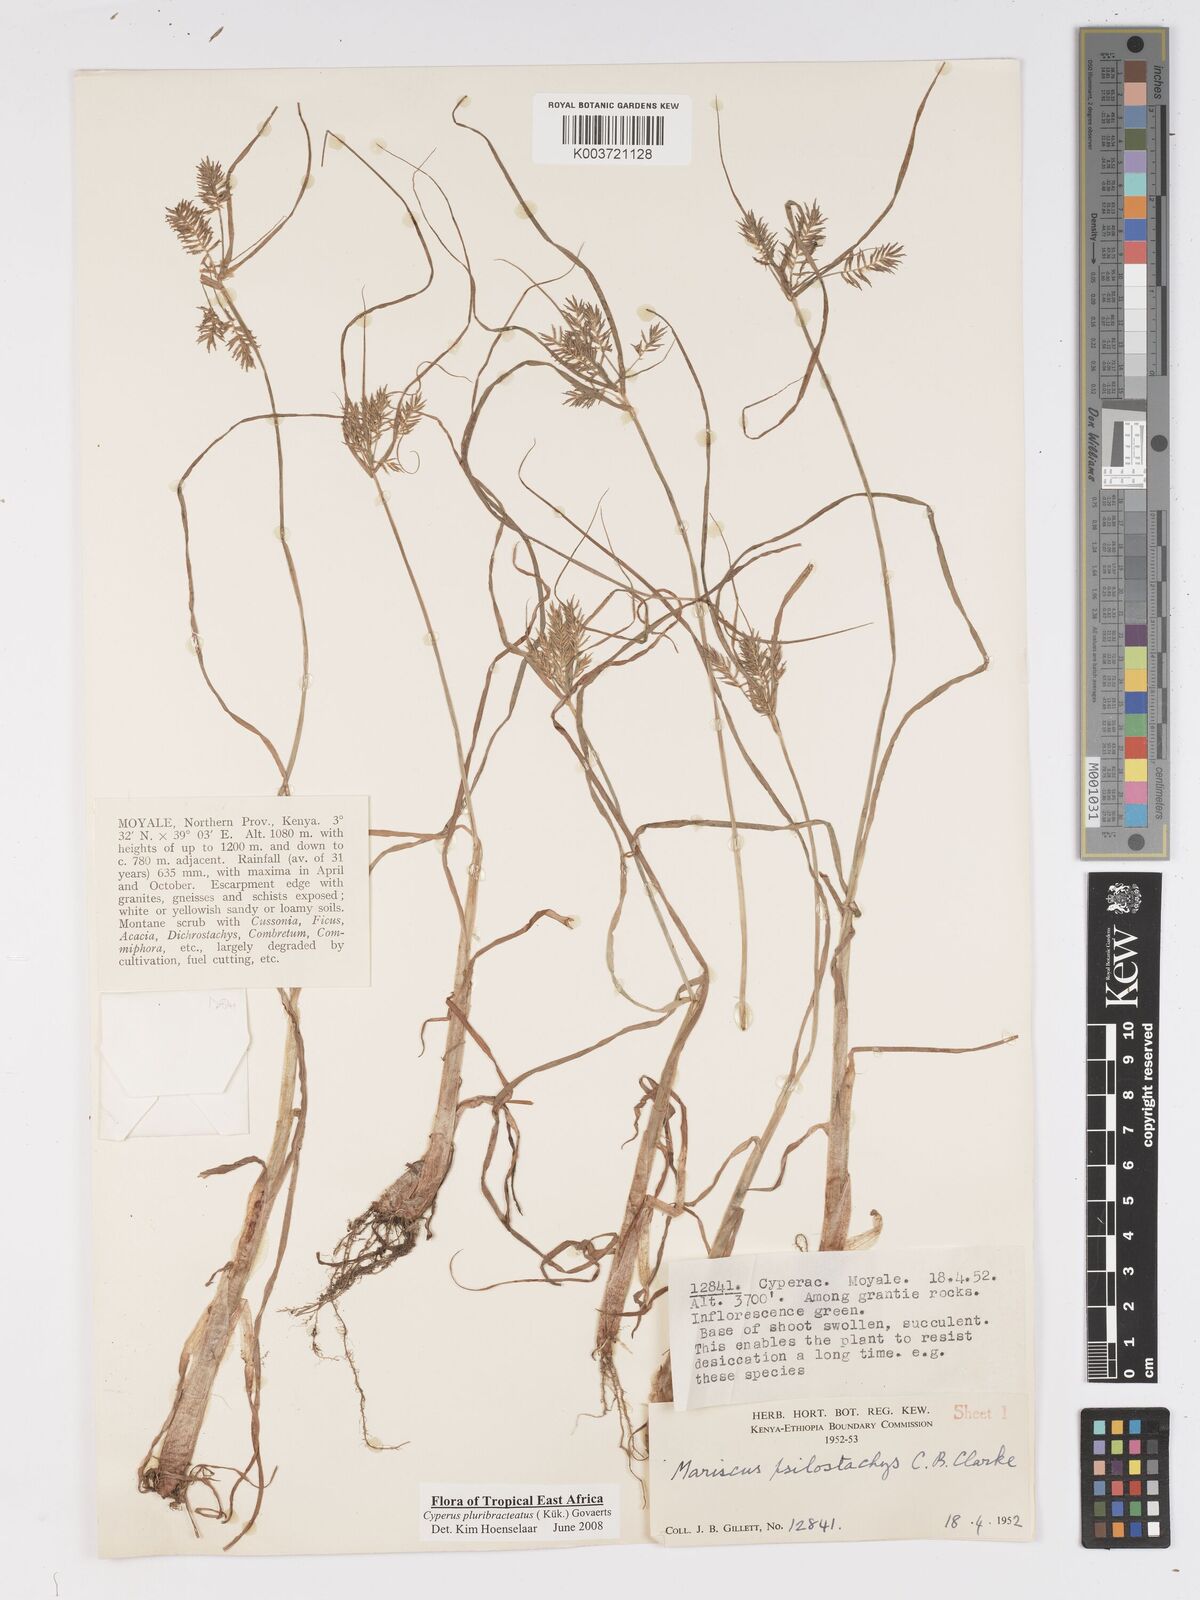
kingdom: Plantae
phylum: Tracheophyta
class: Liliopsida
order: Poales
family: Cyperaceae
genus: Cyperus
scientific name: Cyperus trigonellus
